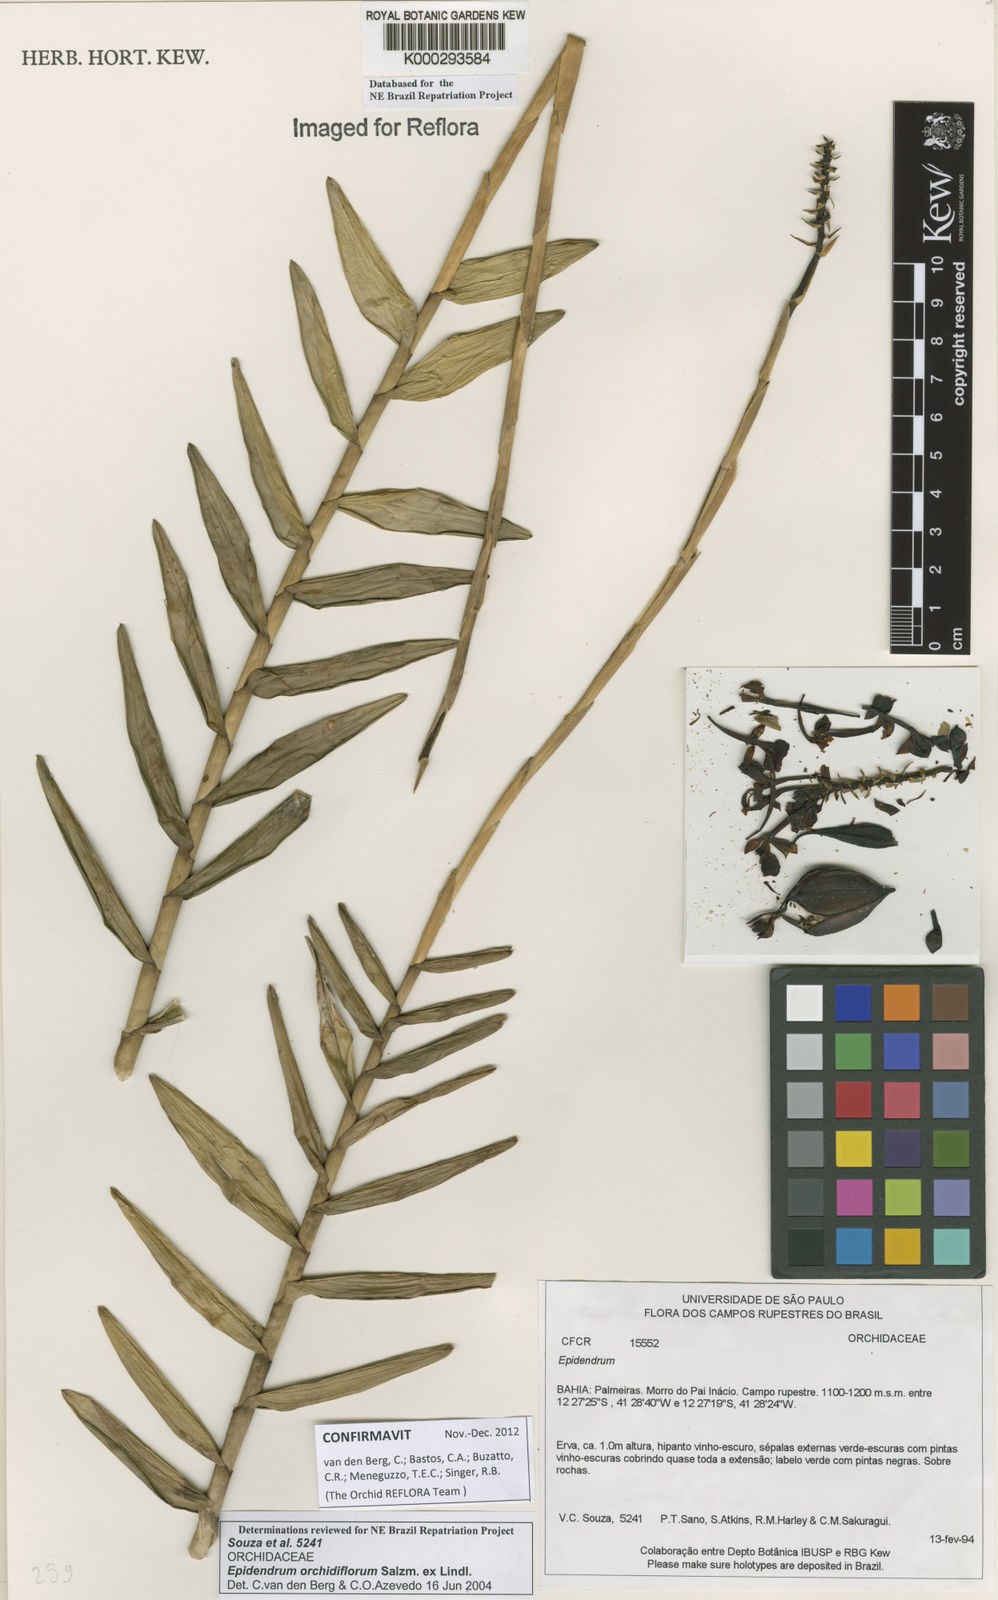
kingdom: Plantae
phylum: Tracheophyta
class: Liliopsida
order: Asparagales
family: Orchidaceae
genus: Epidendrum
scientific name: Epidendrum orchidiflorum
